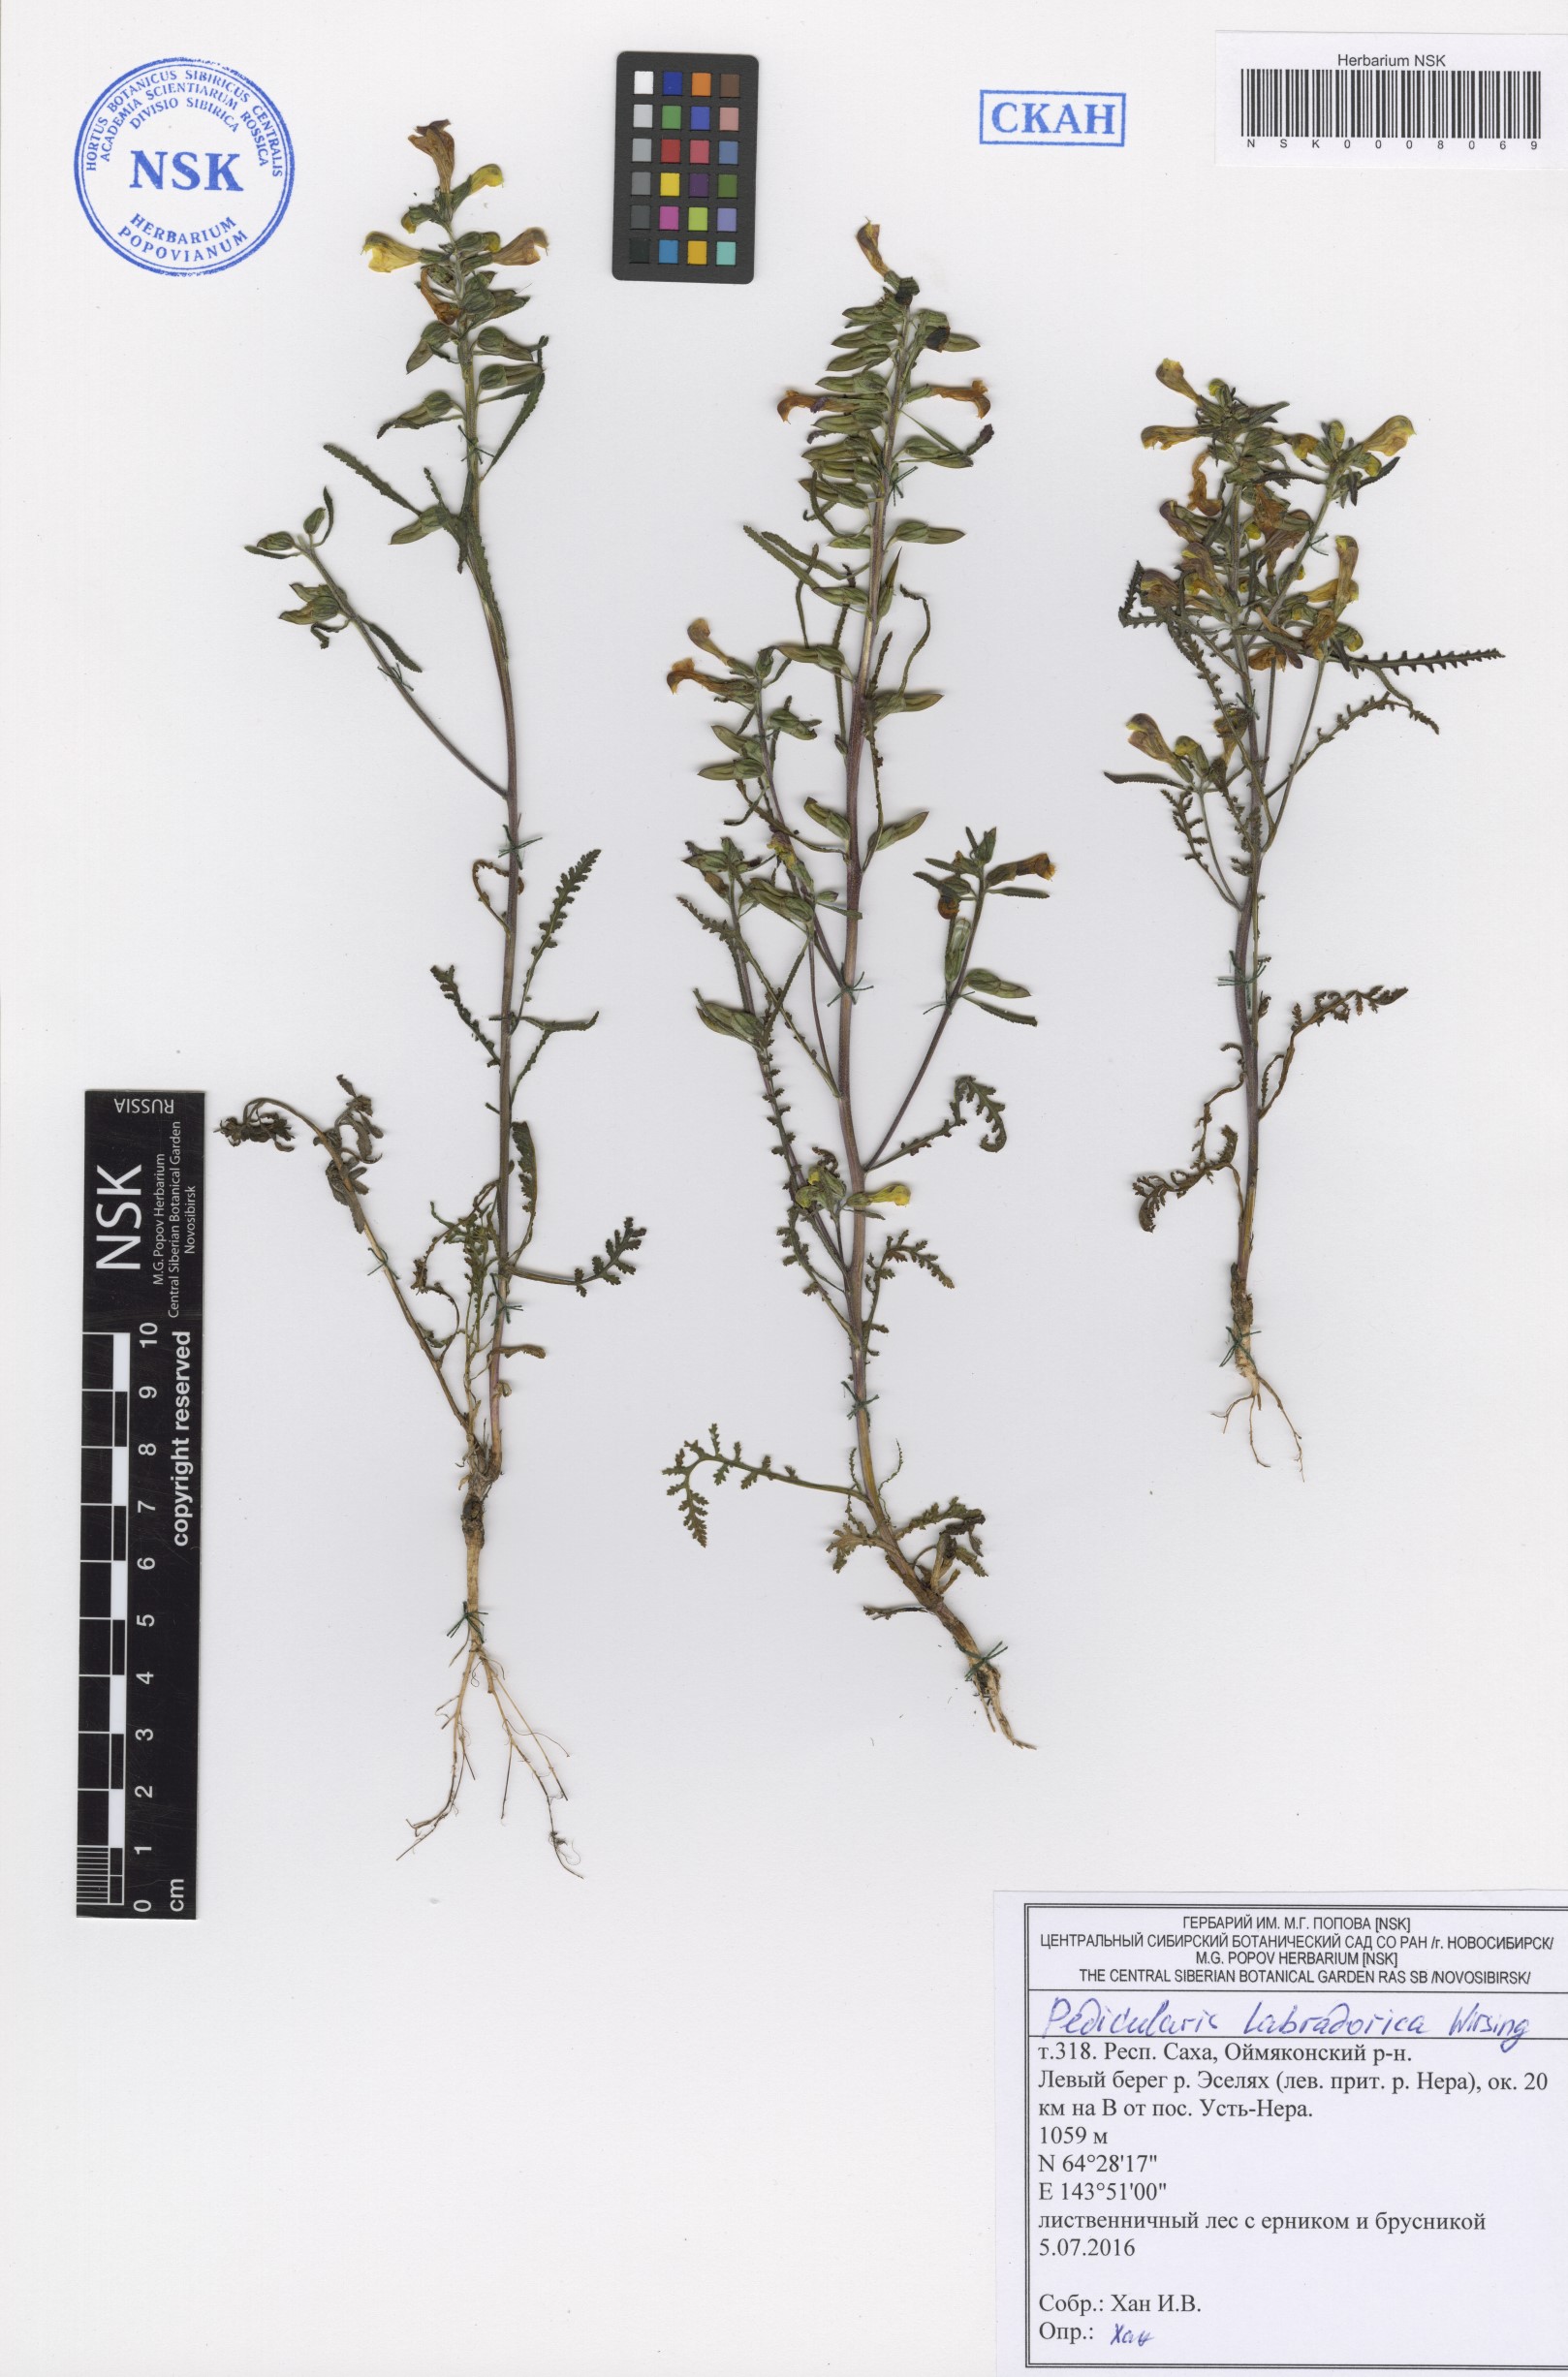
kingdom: Plantae
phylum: Tracheophyta
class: Magnoliopsida
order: Lamiales
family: Orobanchaceae
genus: Pedicularis
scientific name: Pedicularis labradorica
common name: Labrador lousewort
